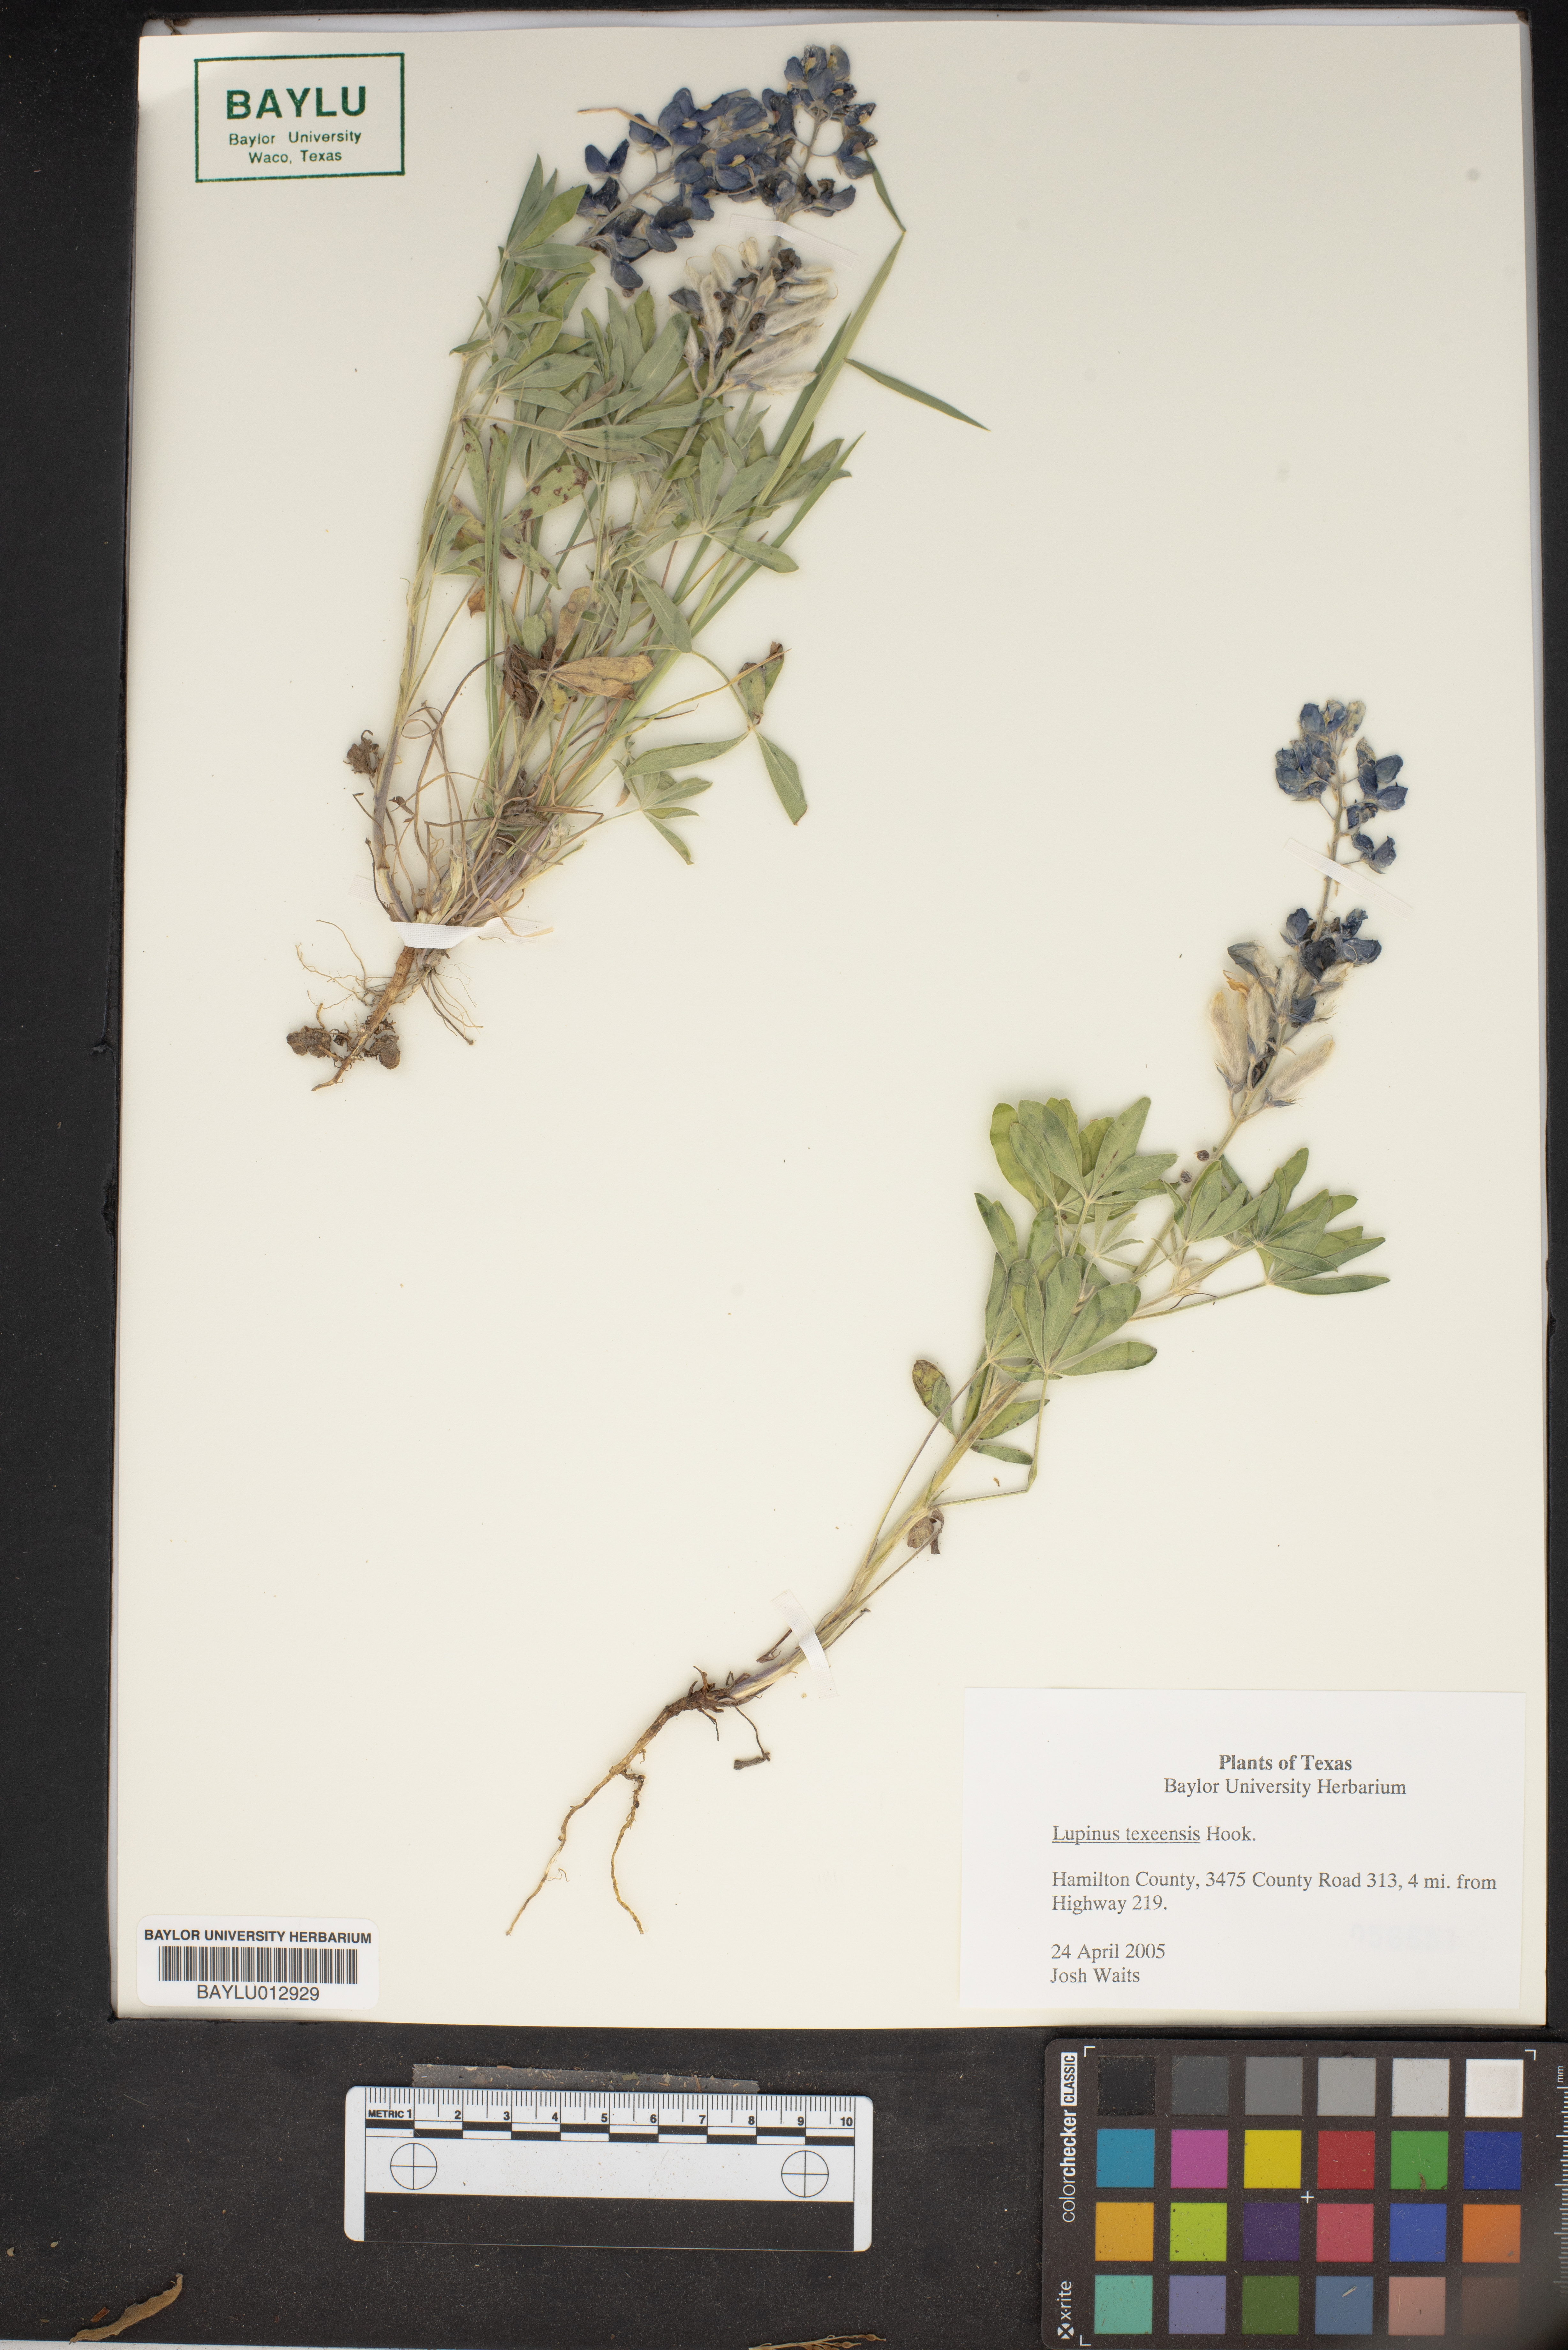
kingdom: Plantae
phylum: Tracheophyta
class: Magnoliopsida
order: Fabales
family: Fabaceae
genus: Lupinus
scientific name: Lupinus texensis
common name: Texas bluebonnet
